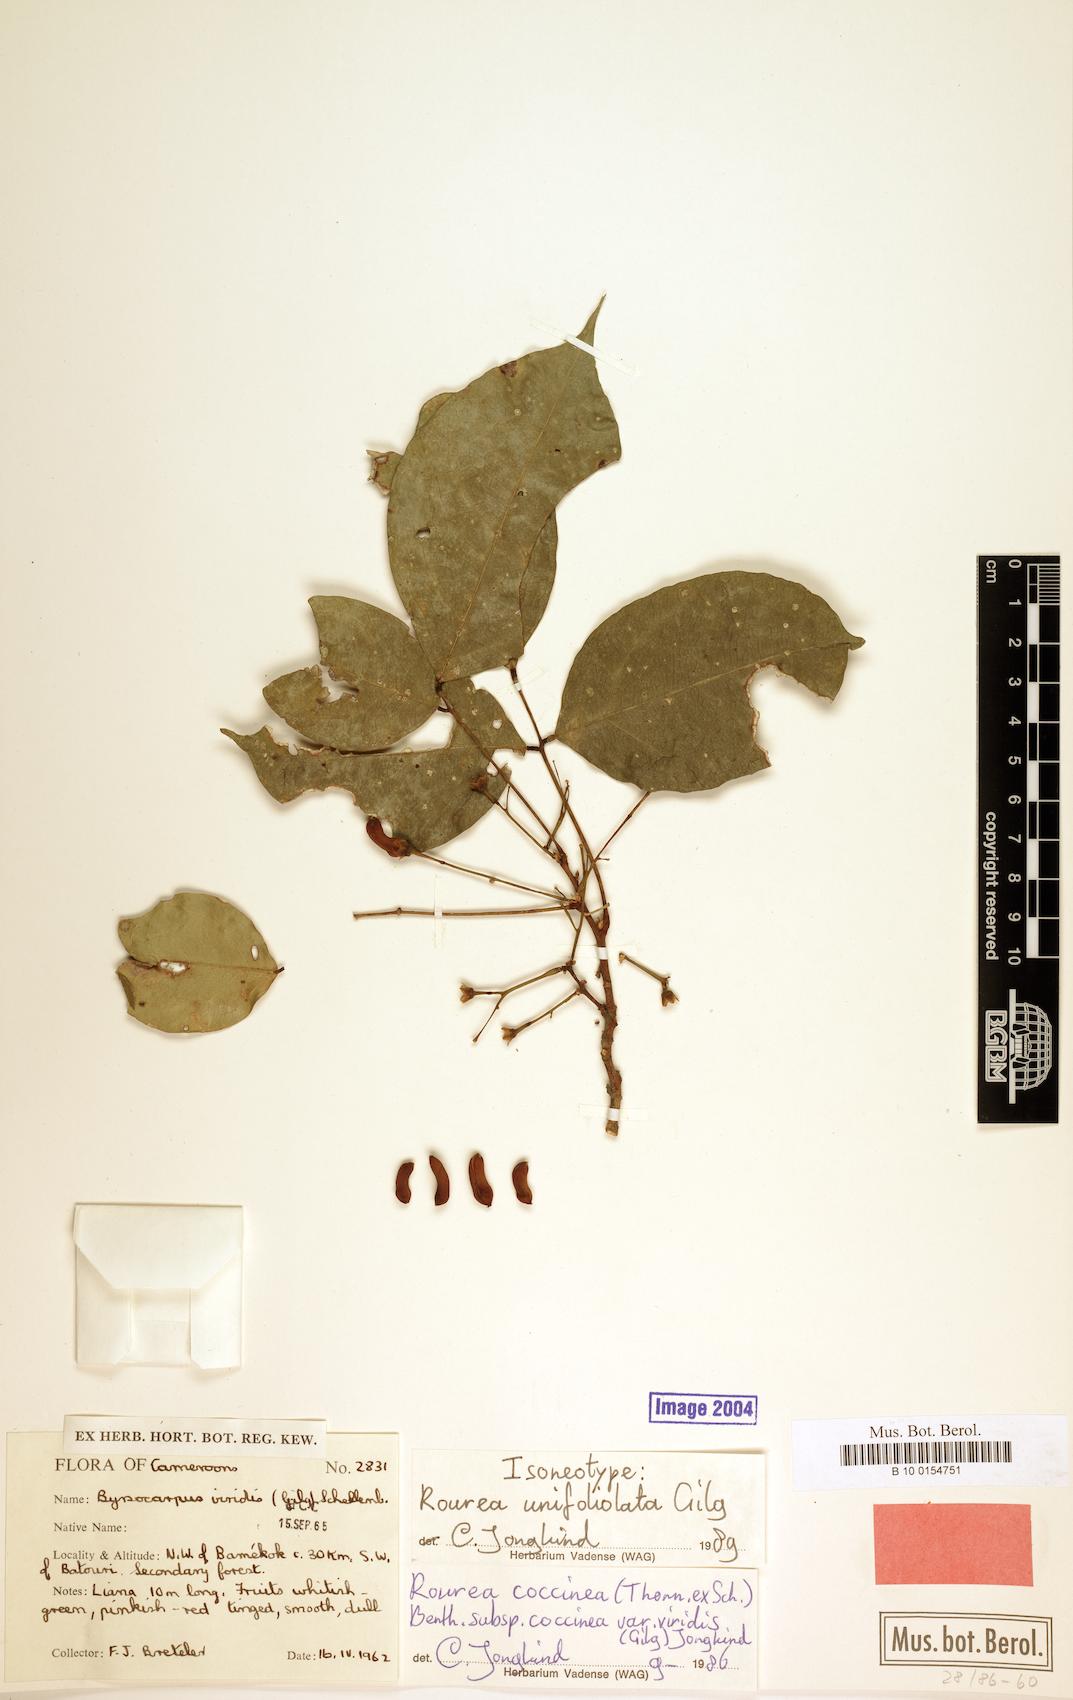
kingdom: Plantae
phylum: Tracheophyta
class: Magnoliopsida
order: Oxalidales
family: Connaraceae
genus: Rourea
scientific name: Rourea coccinea
